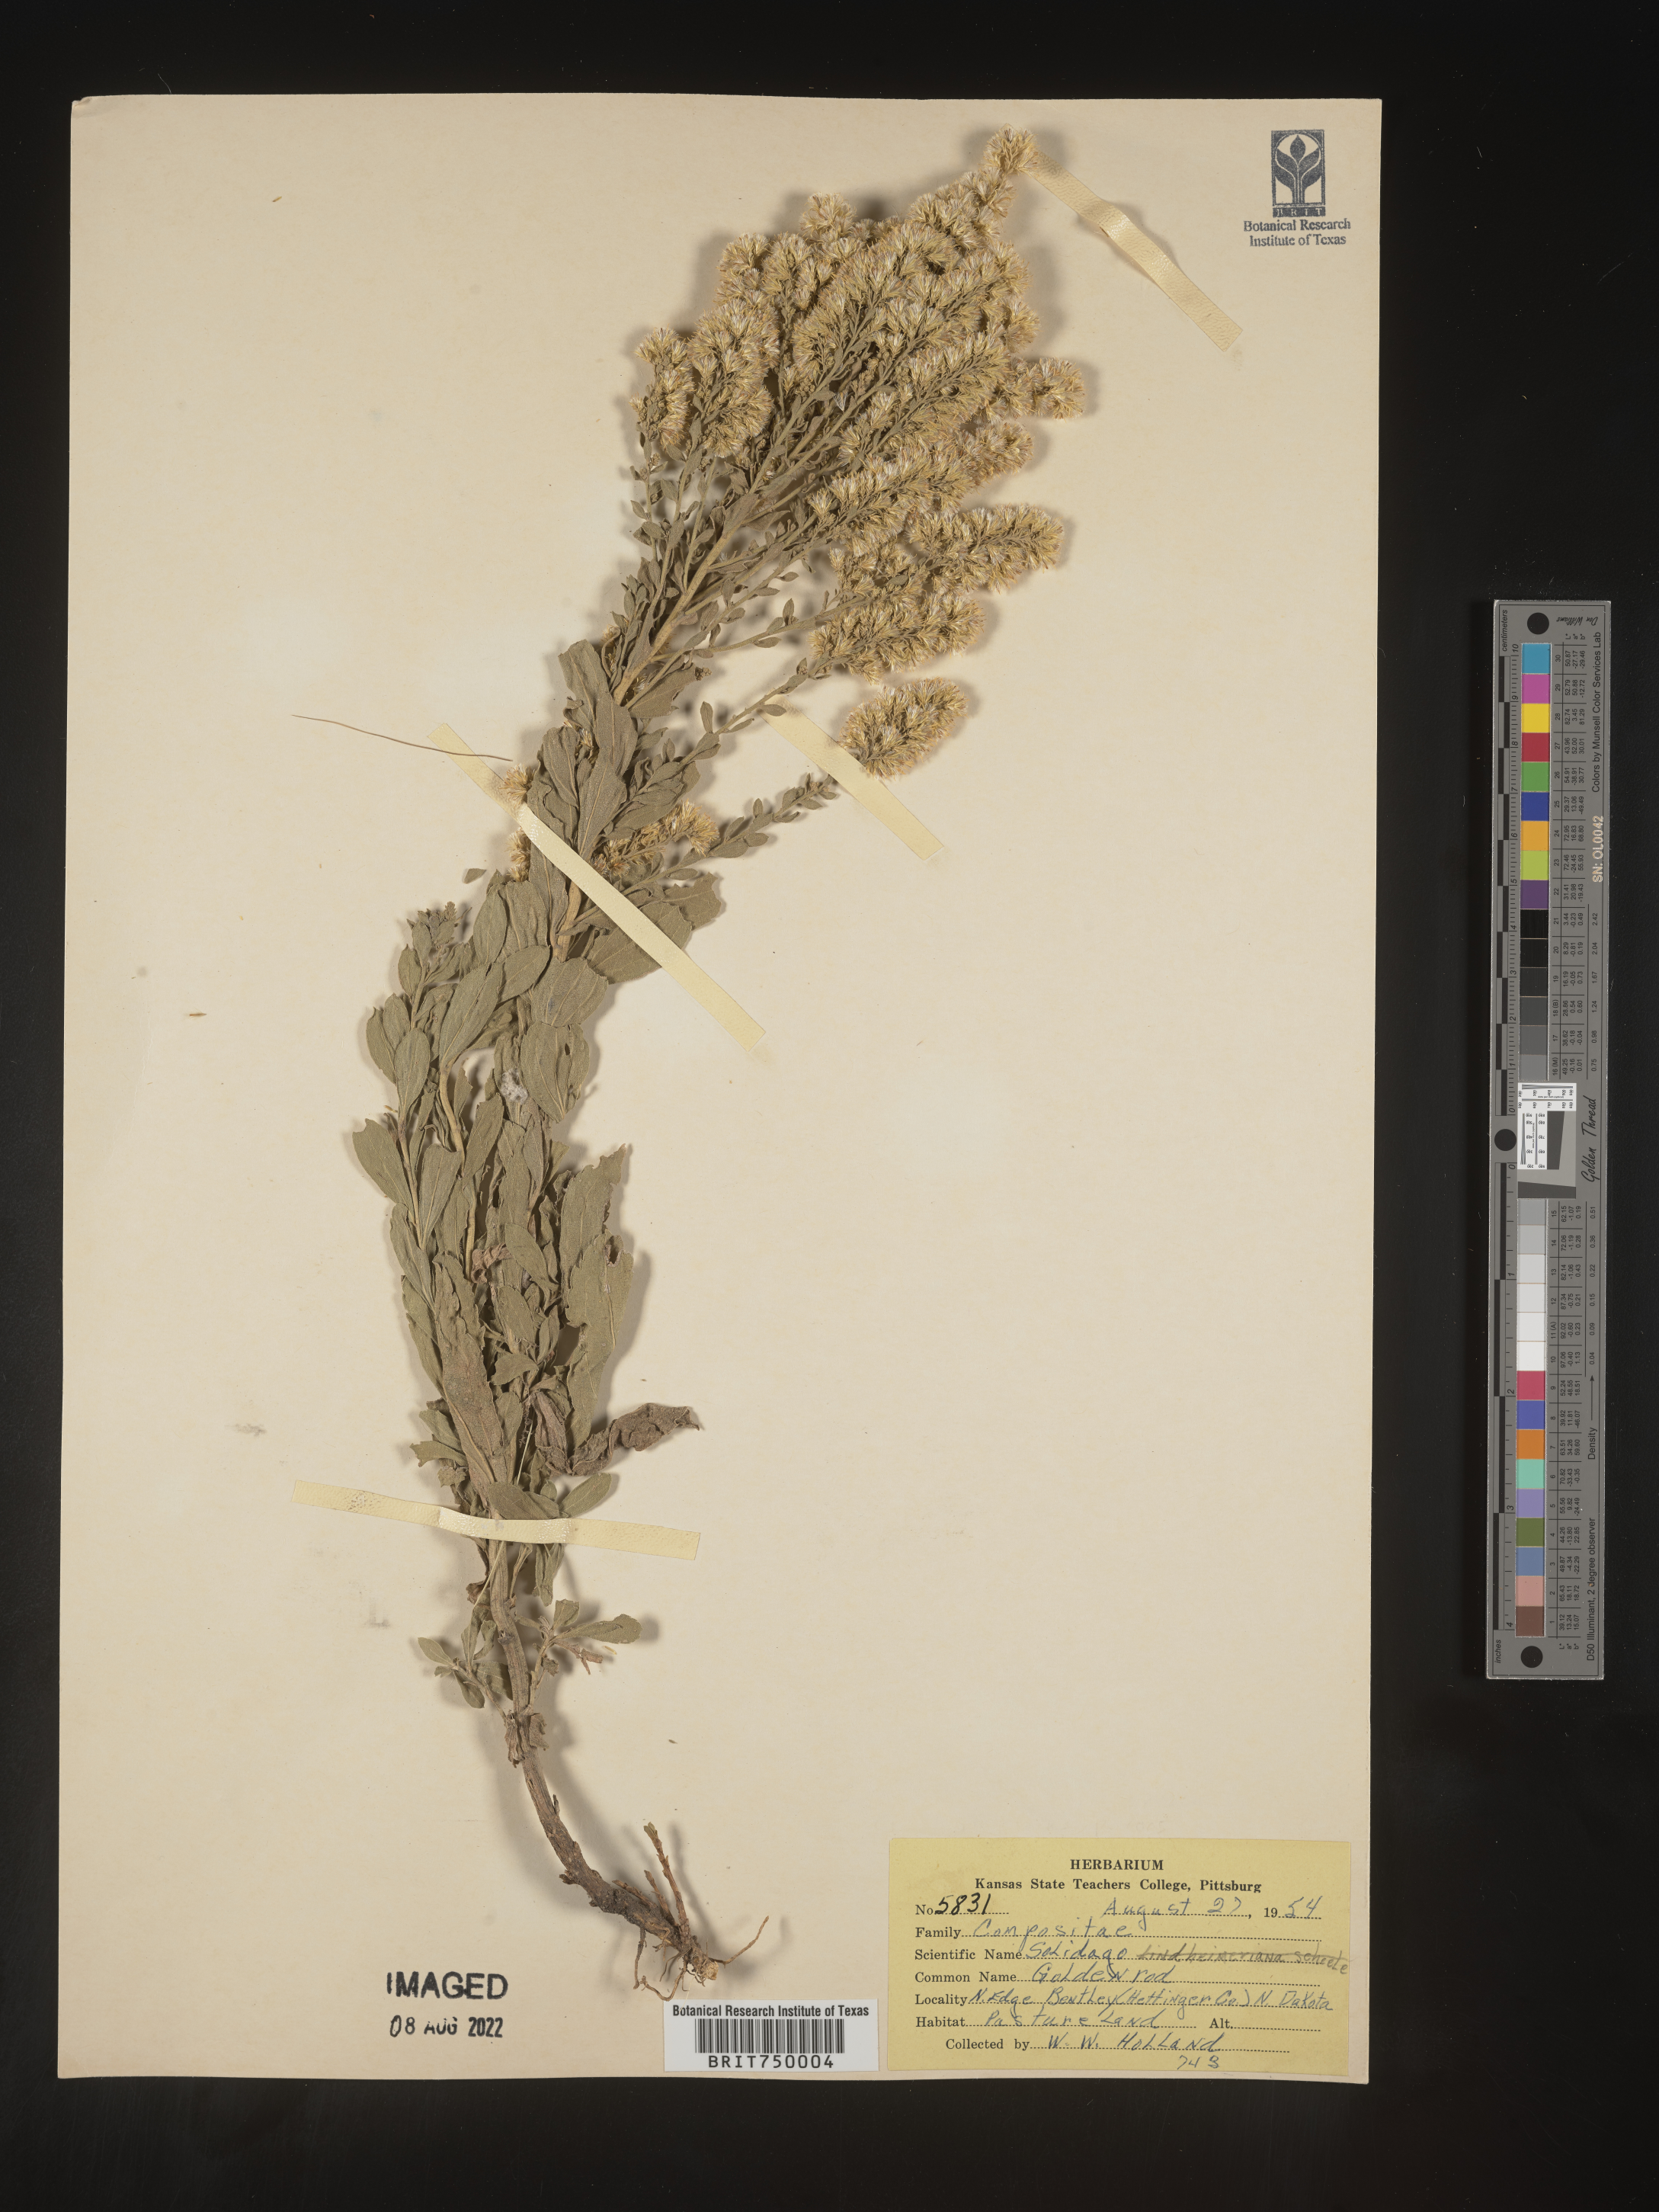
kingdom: Plantae
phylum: Tracheophyta
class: Magnoliopsida
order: Asterales
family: Asteraceae
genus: Solidago
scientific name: Solidago
